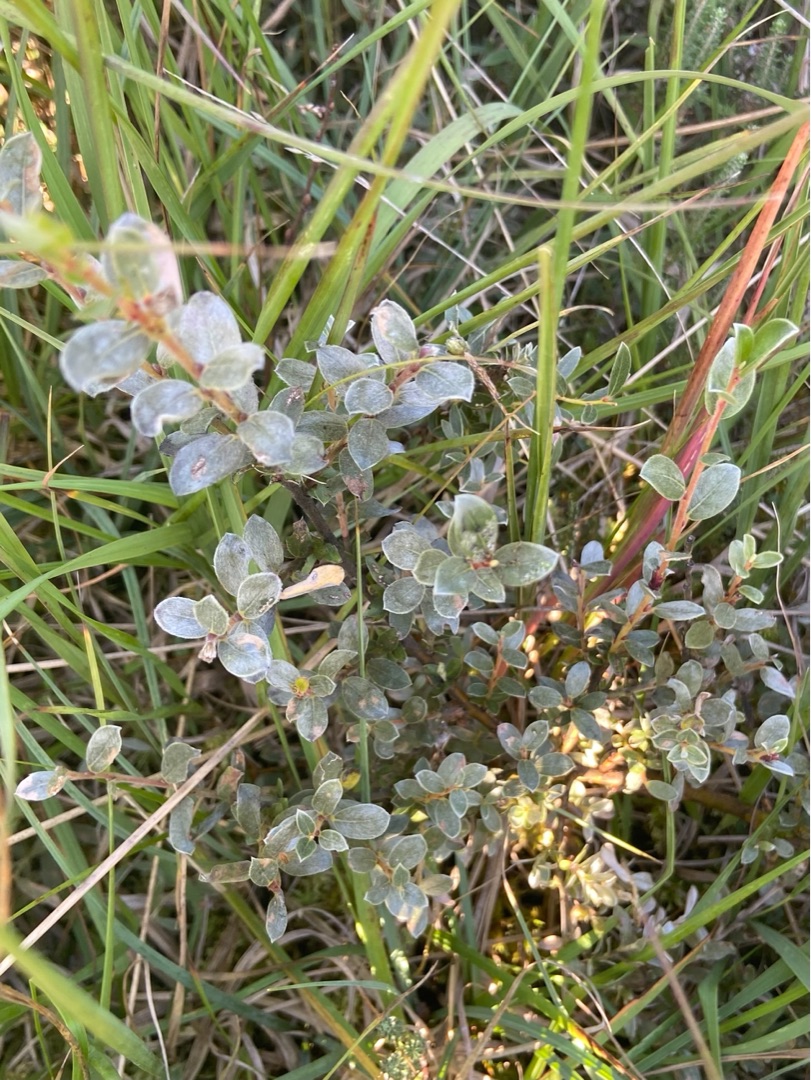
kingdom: Plantae
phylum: Tracheophyta
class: Magnoliopsida
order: Malpighiales
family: Salicaceae
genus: Salix
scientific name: Salix repens
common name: Gråris
